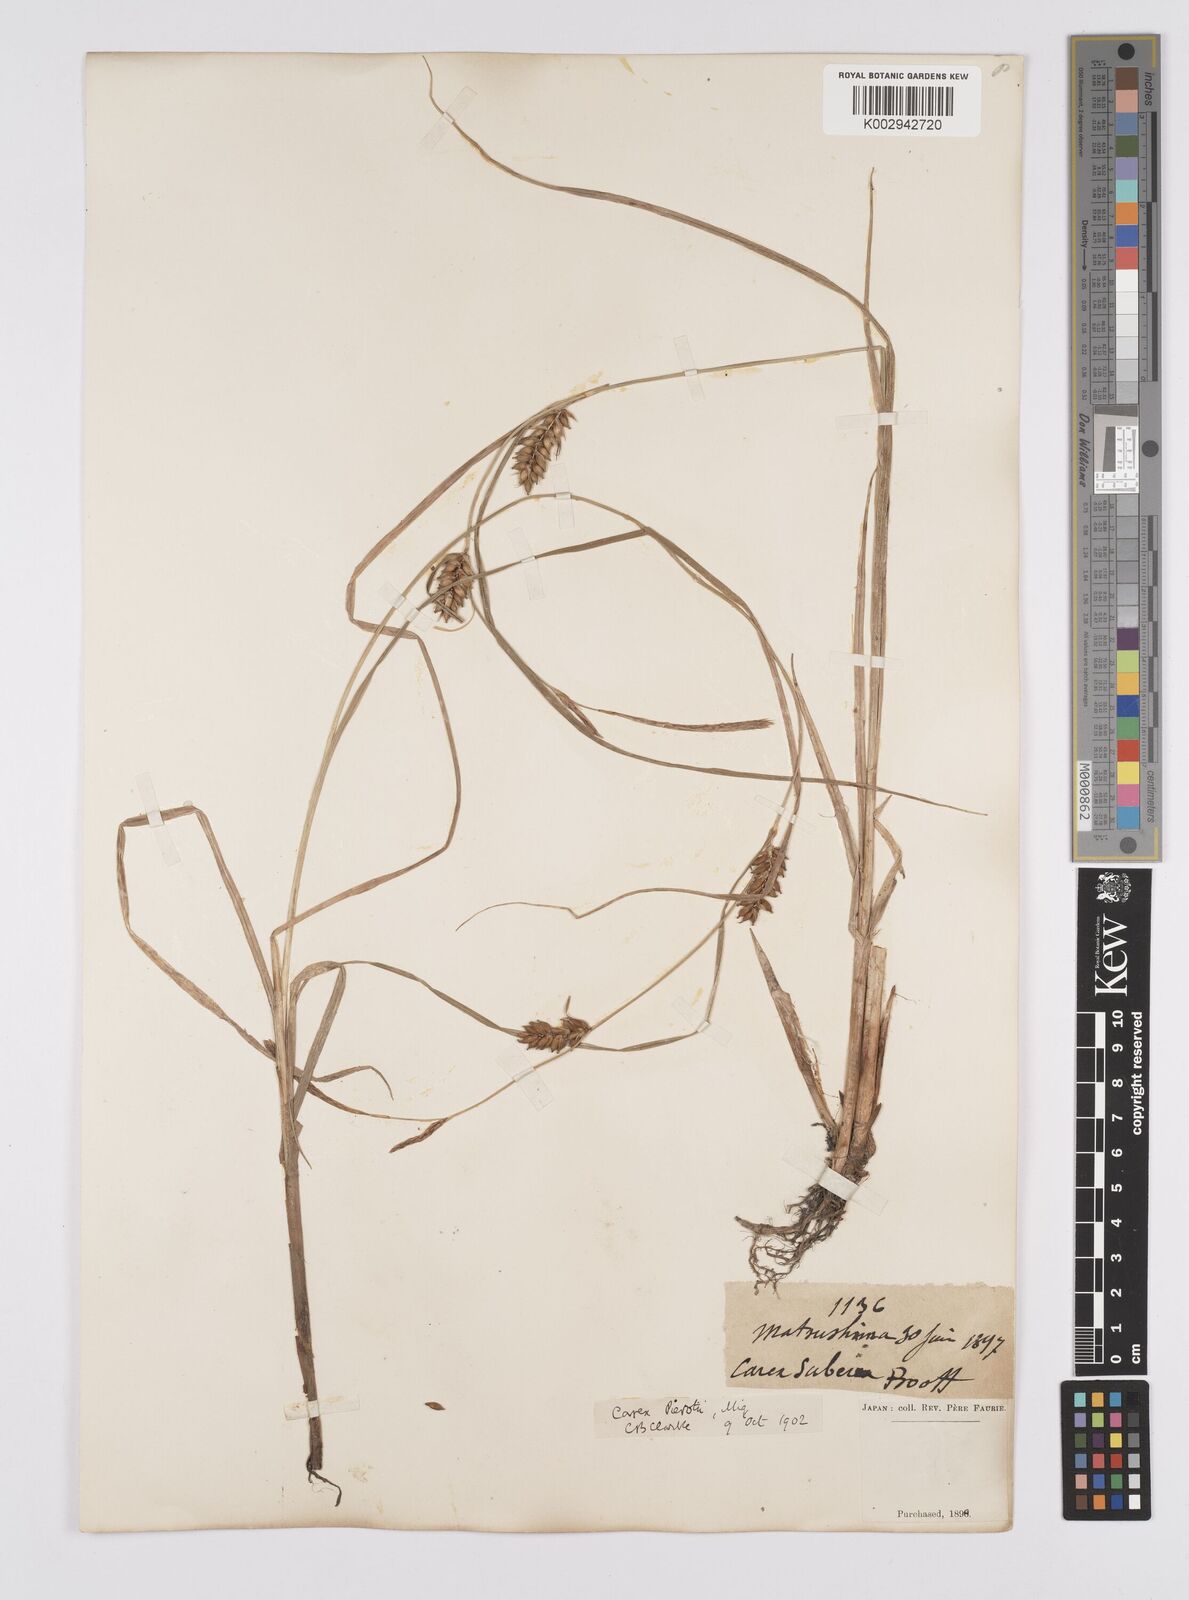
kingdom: Plantae
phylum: Tracheophyta
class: Liliopsida
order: Poales
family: Cyperaceae
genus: Carex
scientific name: Carex scabrifolia
